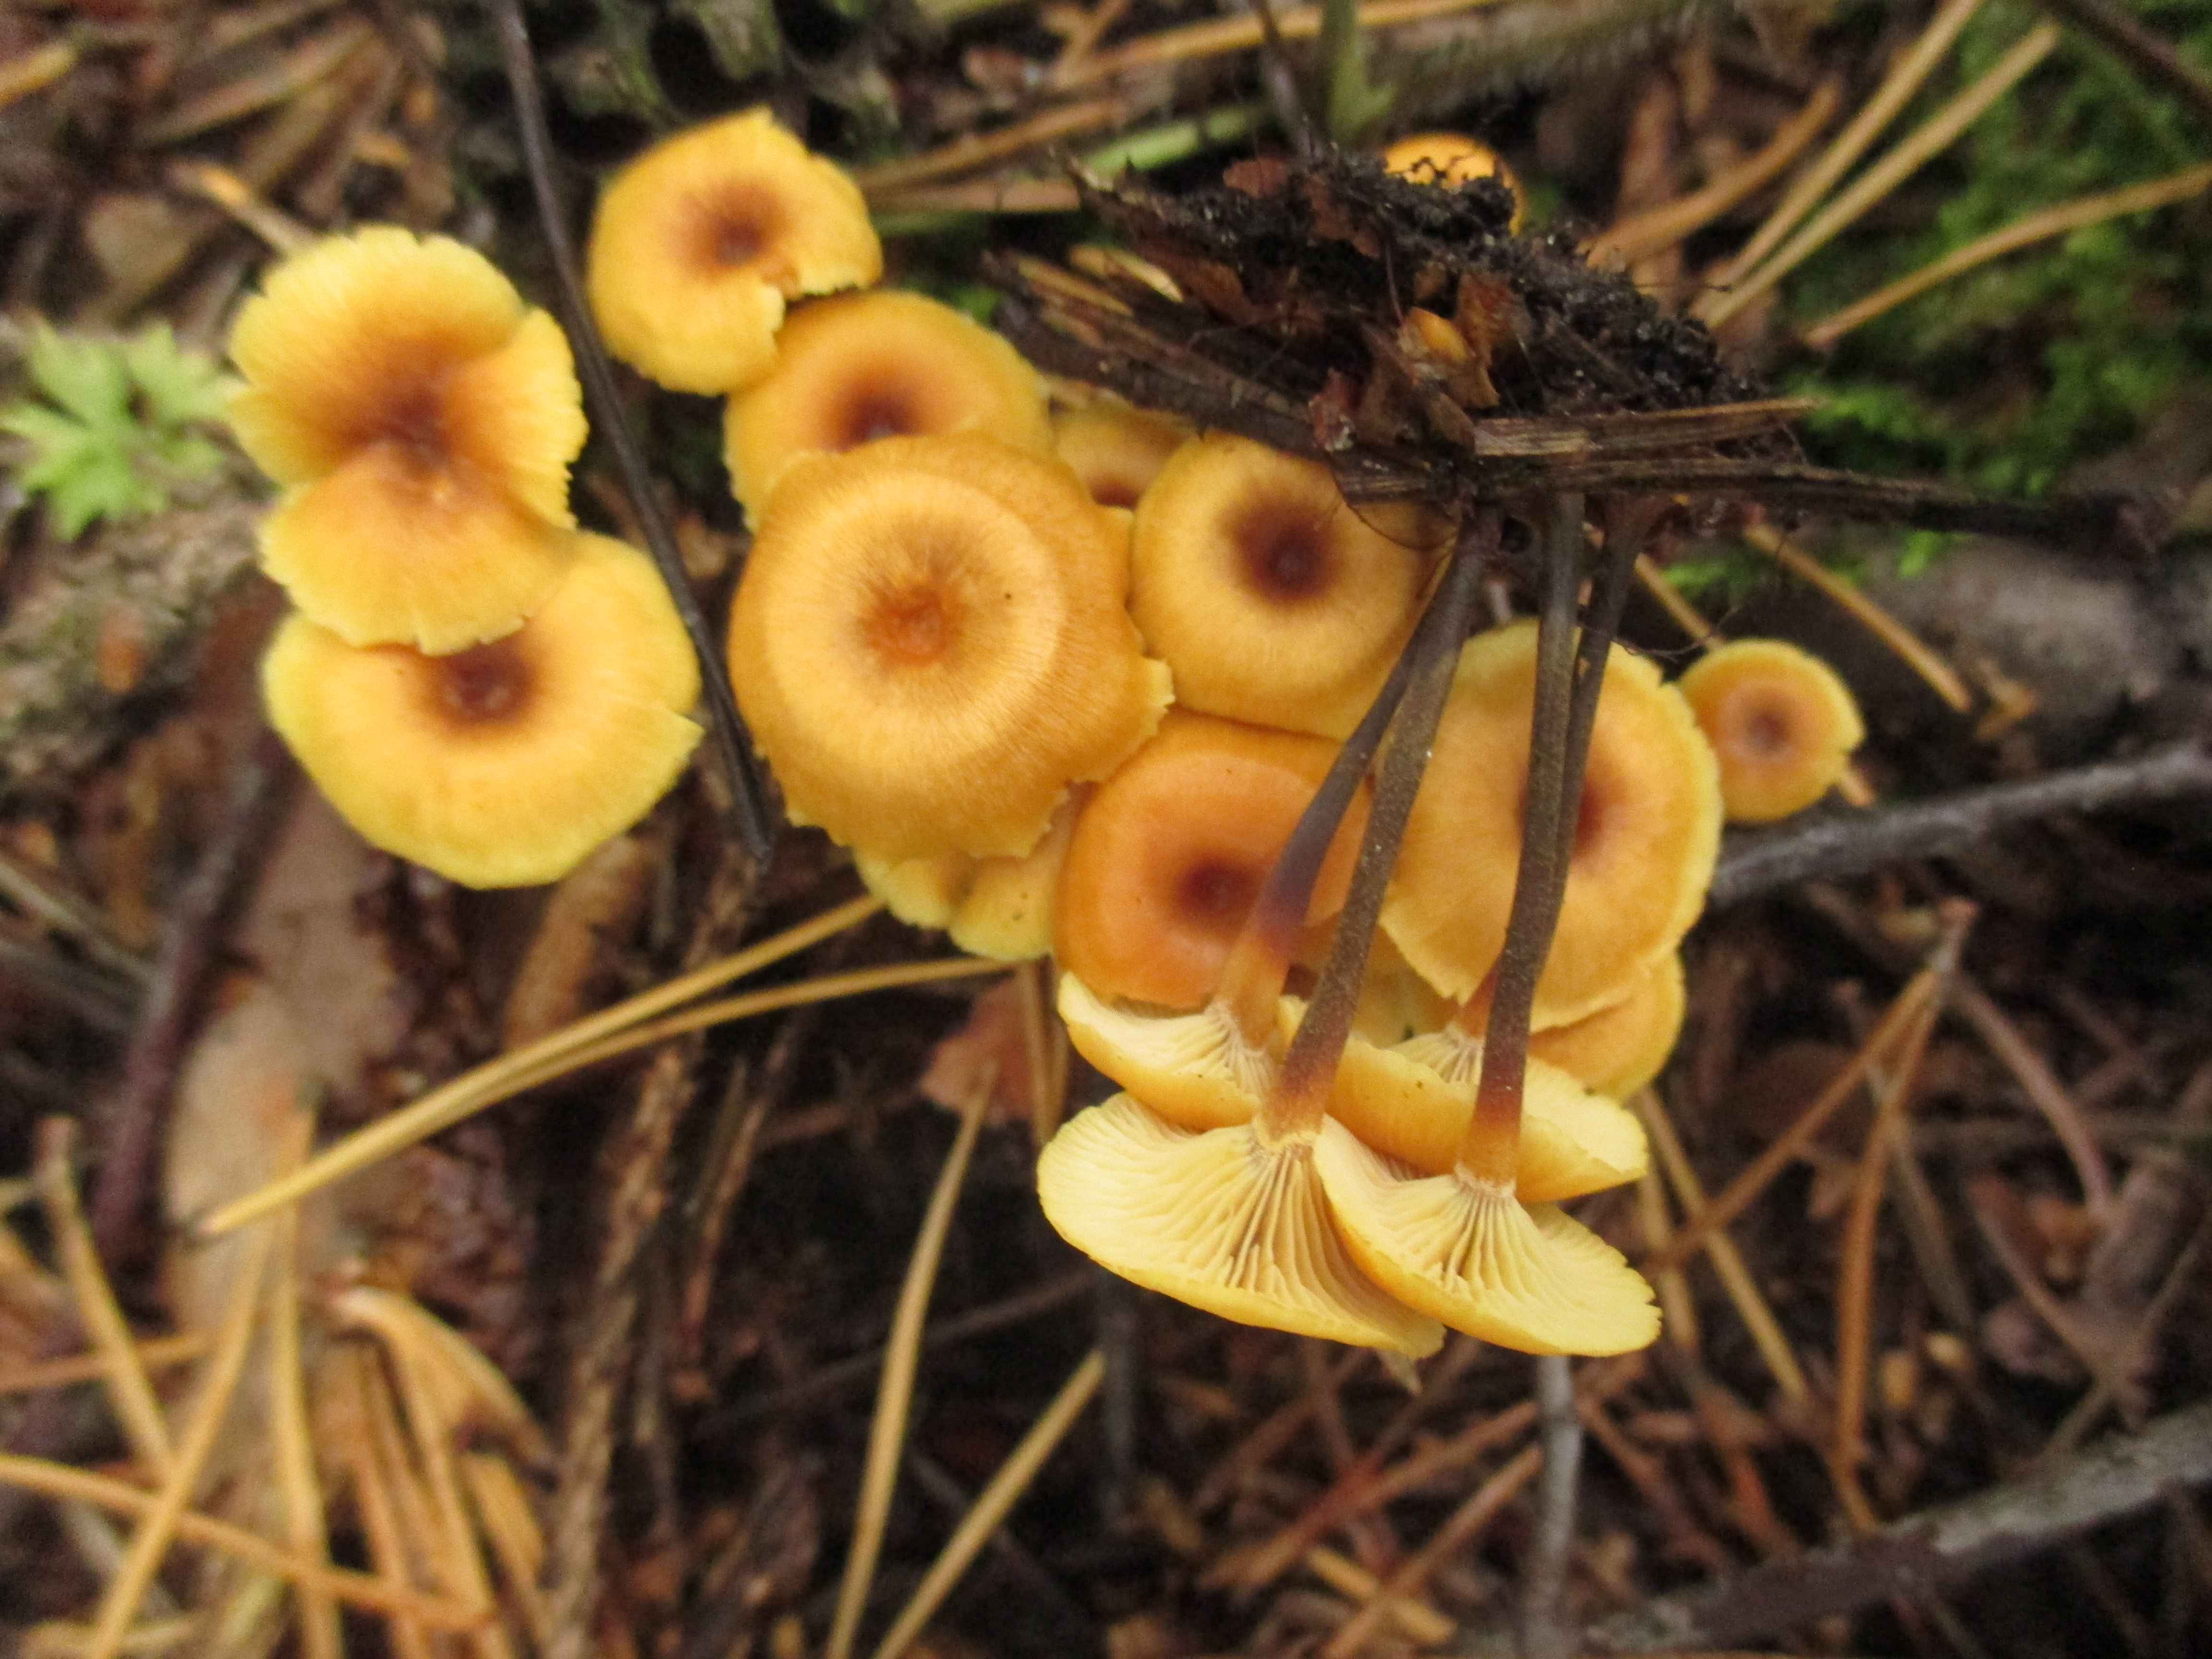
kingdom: Fungi
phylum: Basidiomycota
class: Agaricomycetes
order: Agaricales
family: Mycenaceae
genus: Xeromphalina
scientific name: Xeromphalina campanella
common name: Pinewood gingertail
